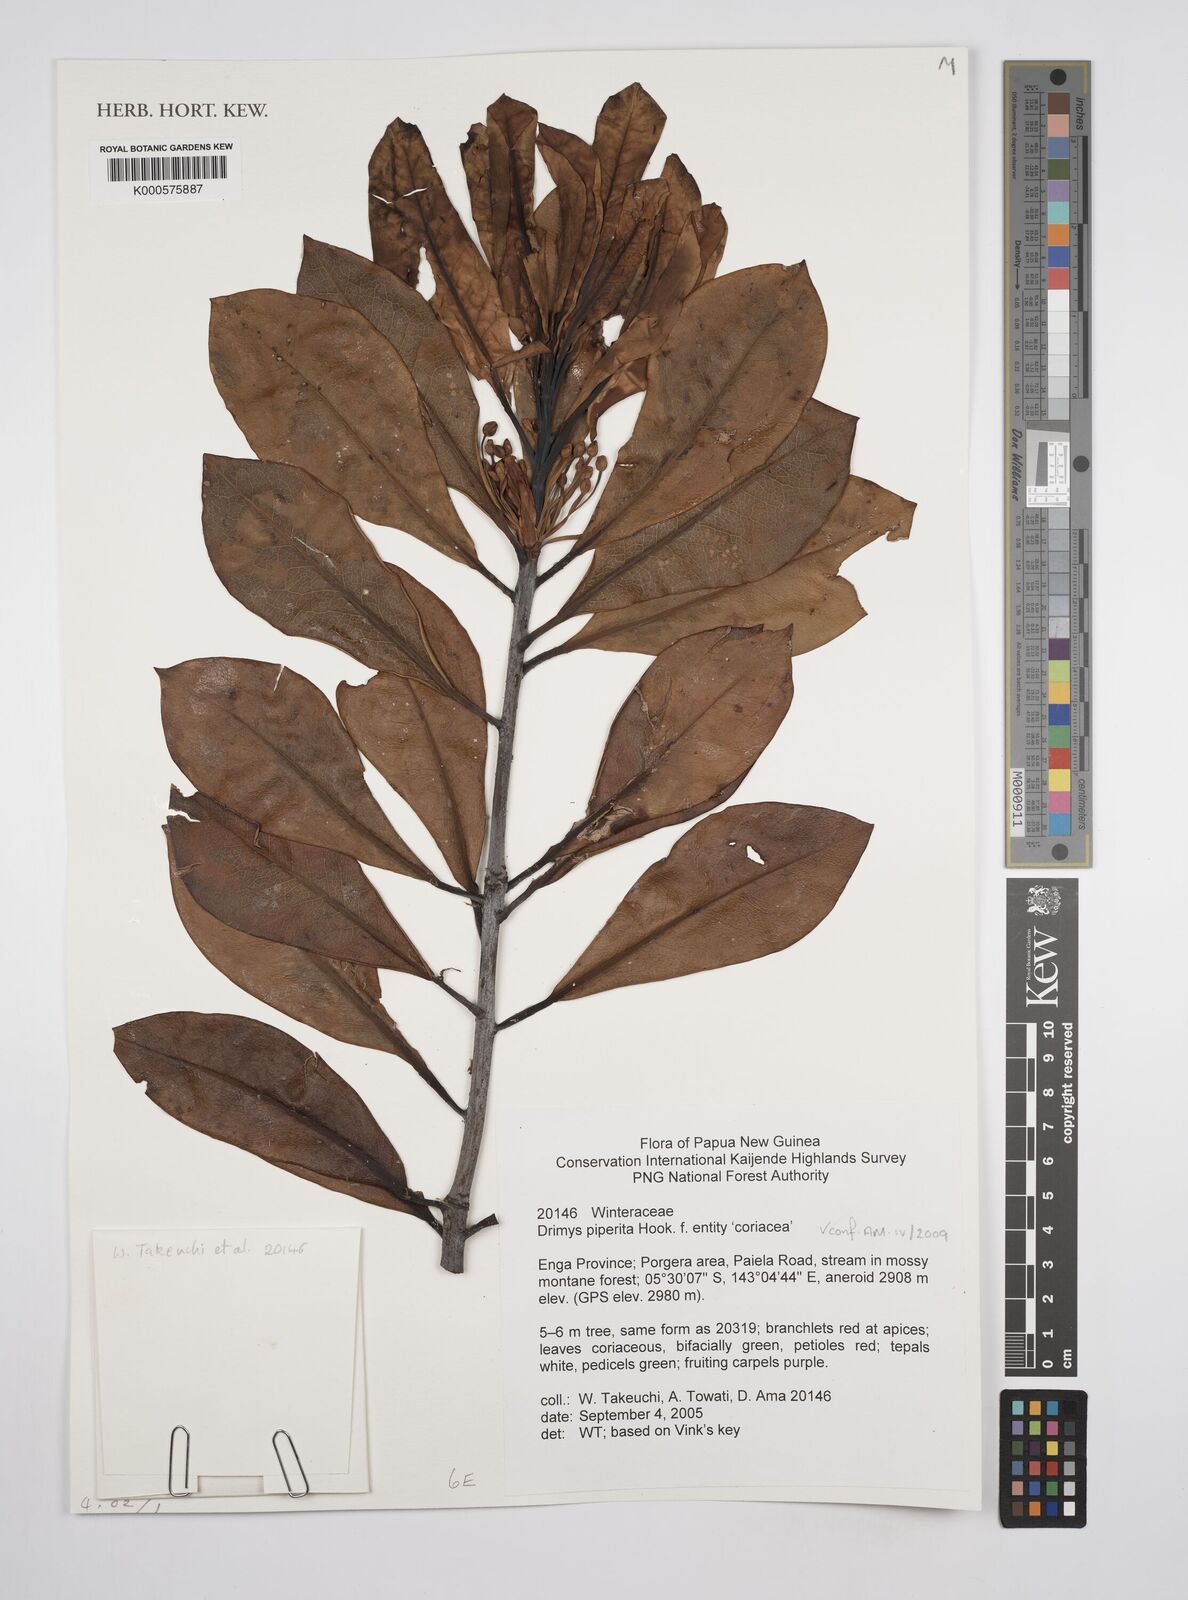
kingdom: Plantae
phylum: Tracheophyta
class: Magnoliopsida
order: Canellales
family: Winteraceae
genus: Drimys
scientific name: Drimys piperita
